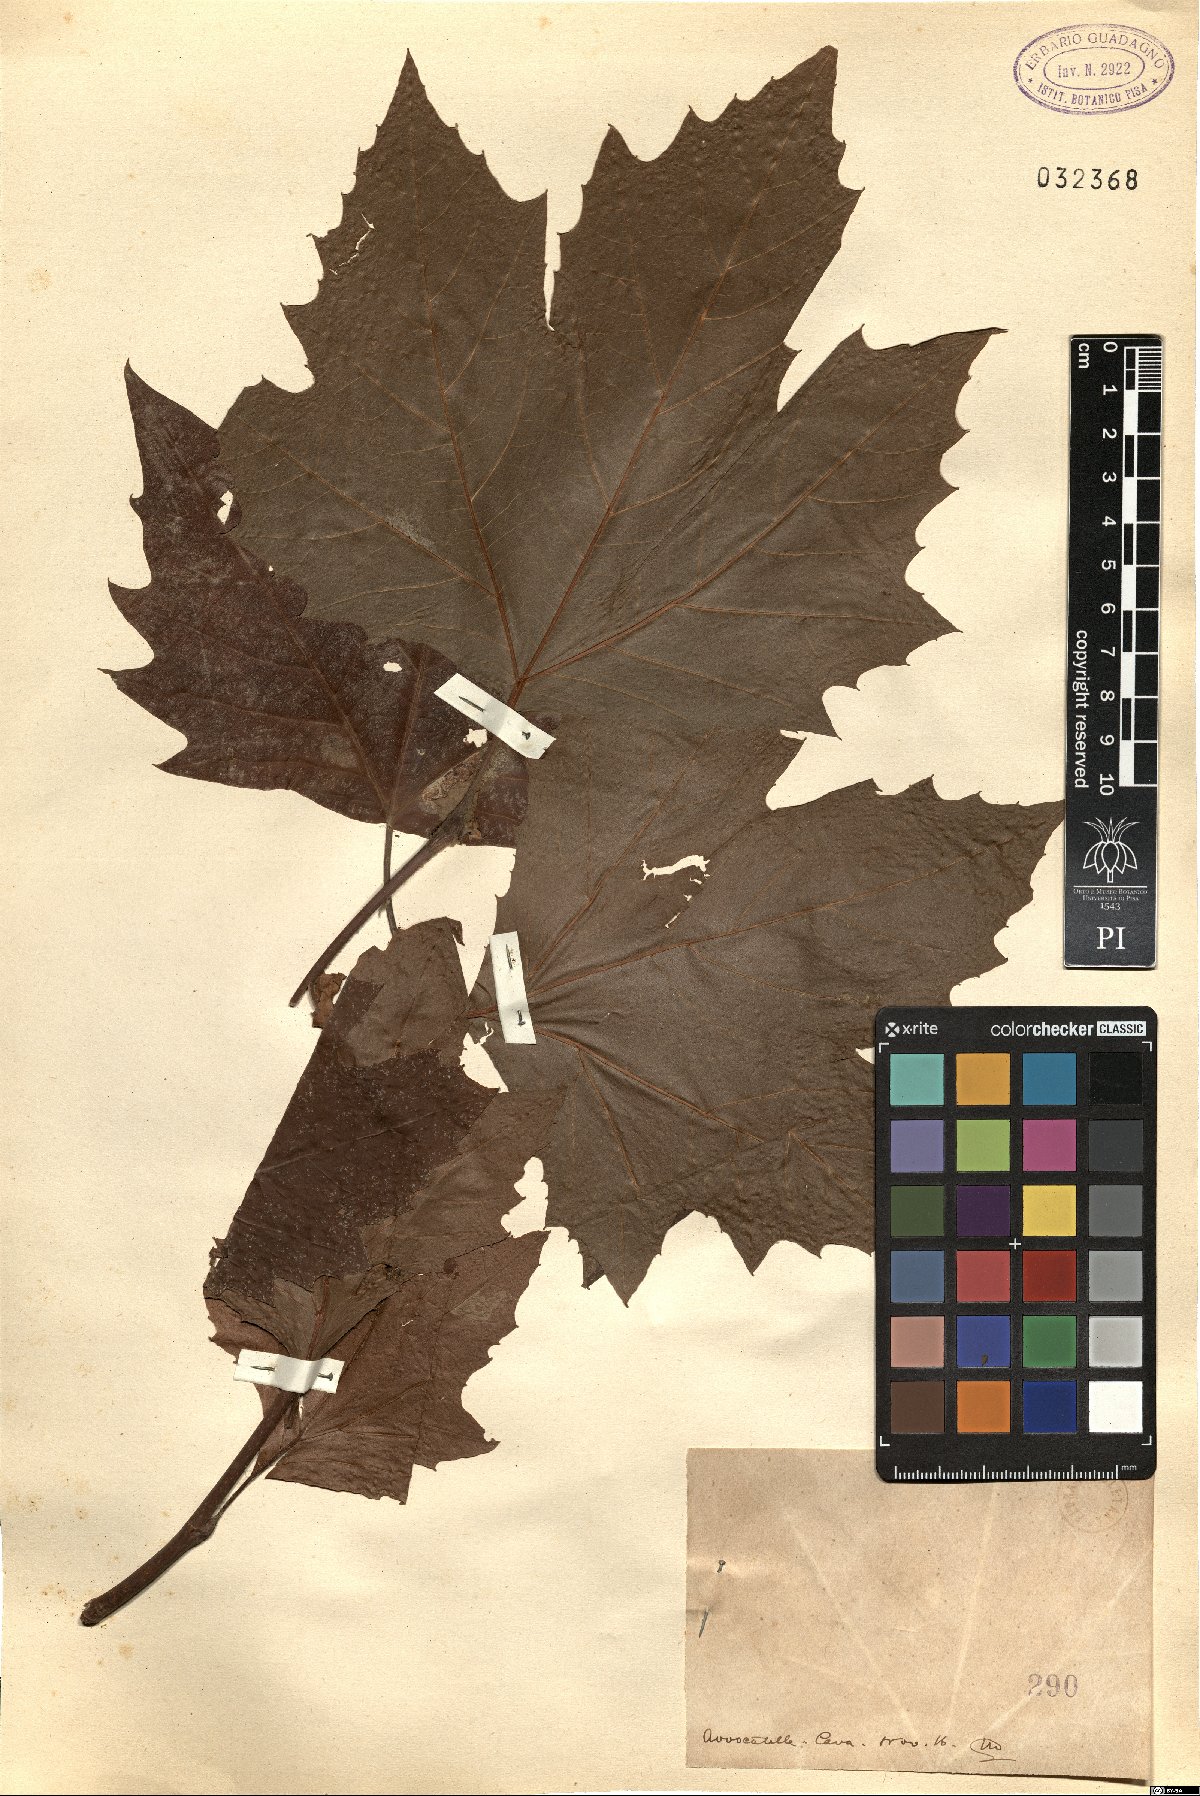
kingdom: Plantae
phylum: Tracheophyta
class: Magnoliopsida
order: Proteales
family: Platanaceae
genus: Platanus
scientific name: Platanus
